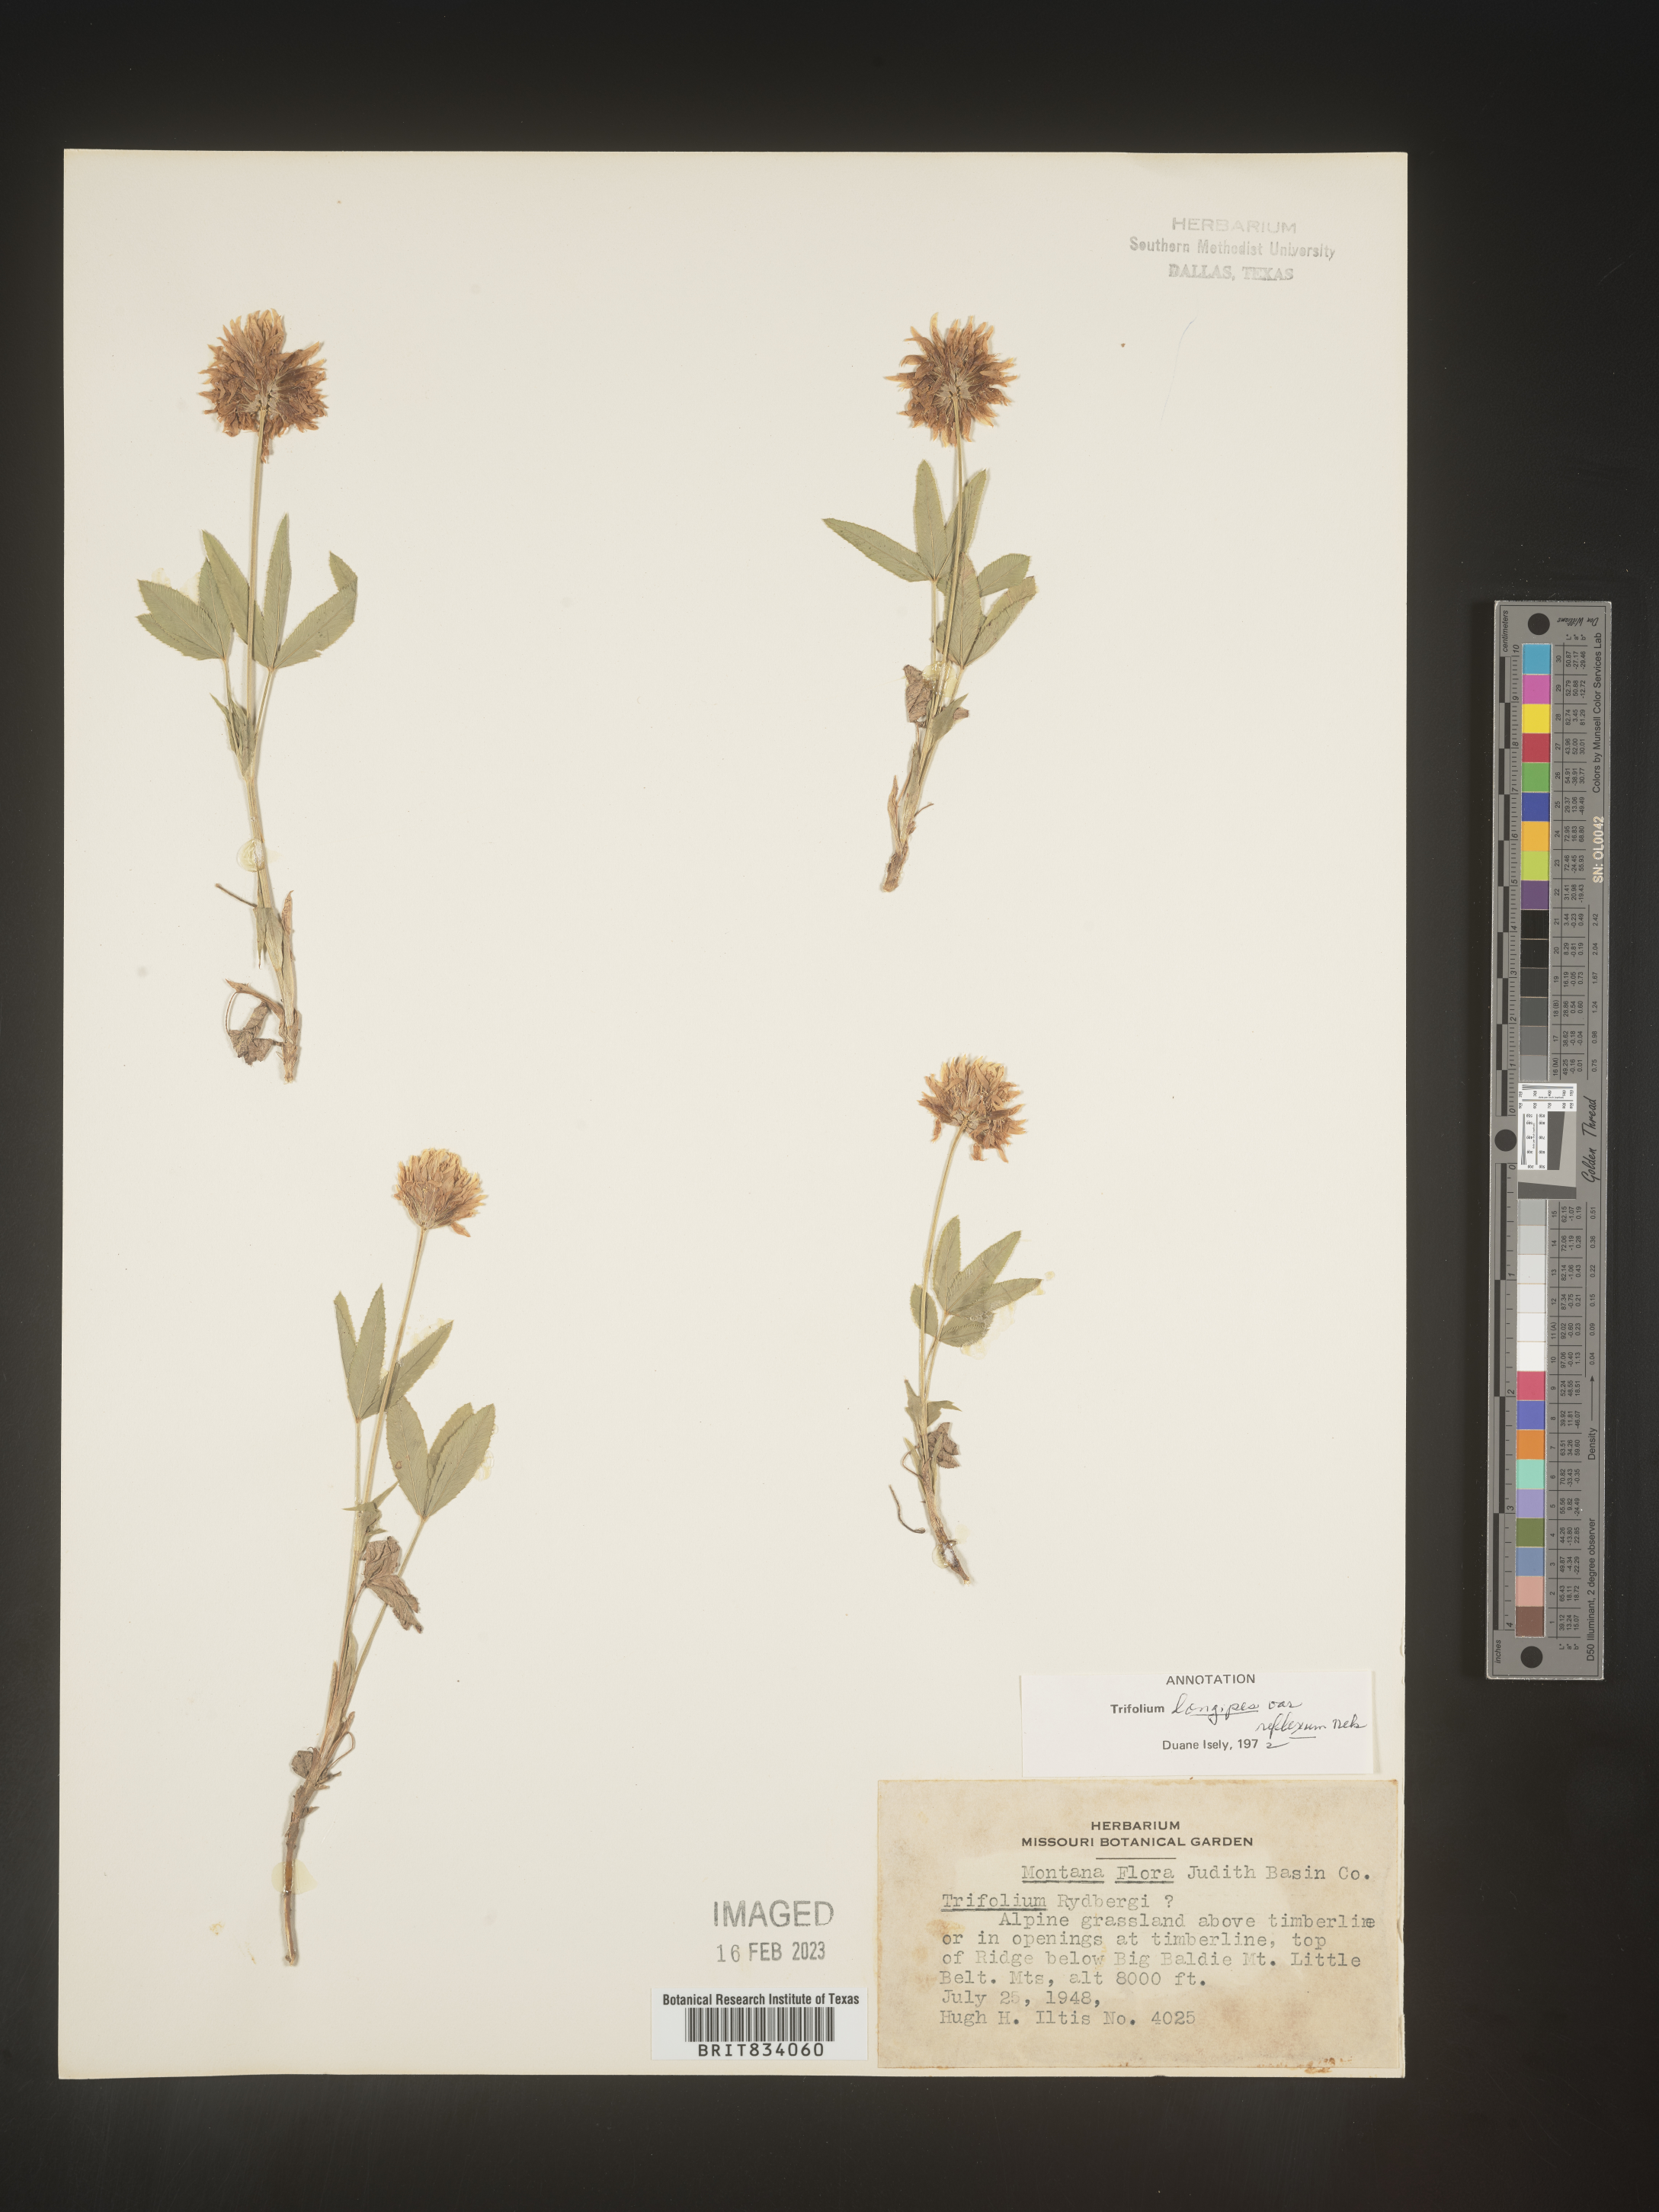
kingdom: Plantae
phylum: Tracheophyta
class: Magnoliopsida
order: Fabales
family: Fabaceae
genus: Trifolium
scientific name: Trifolium
